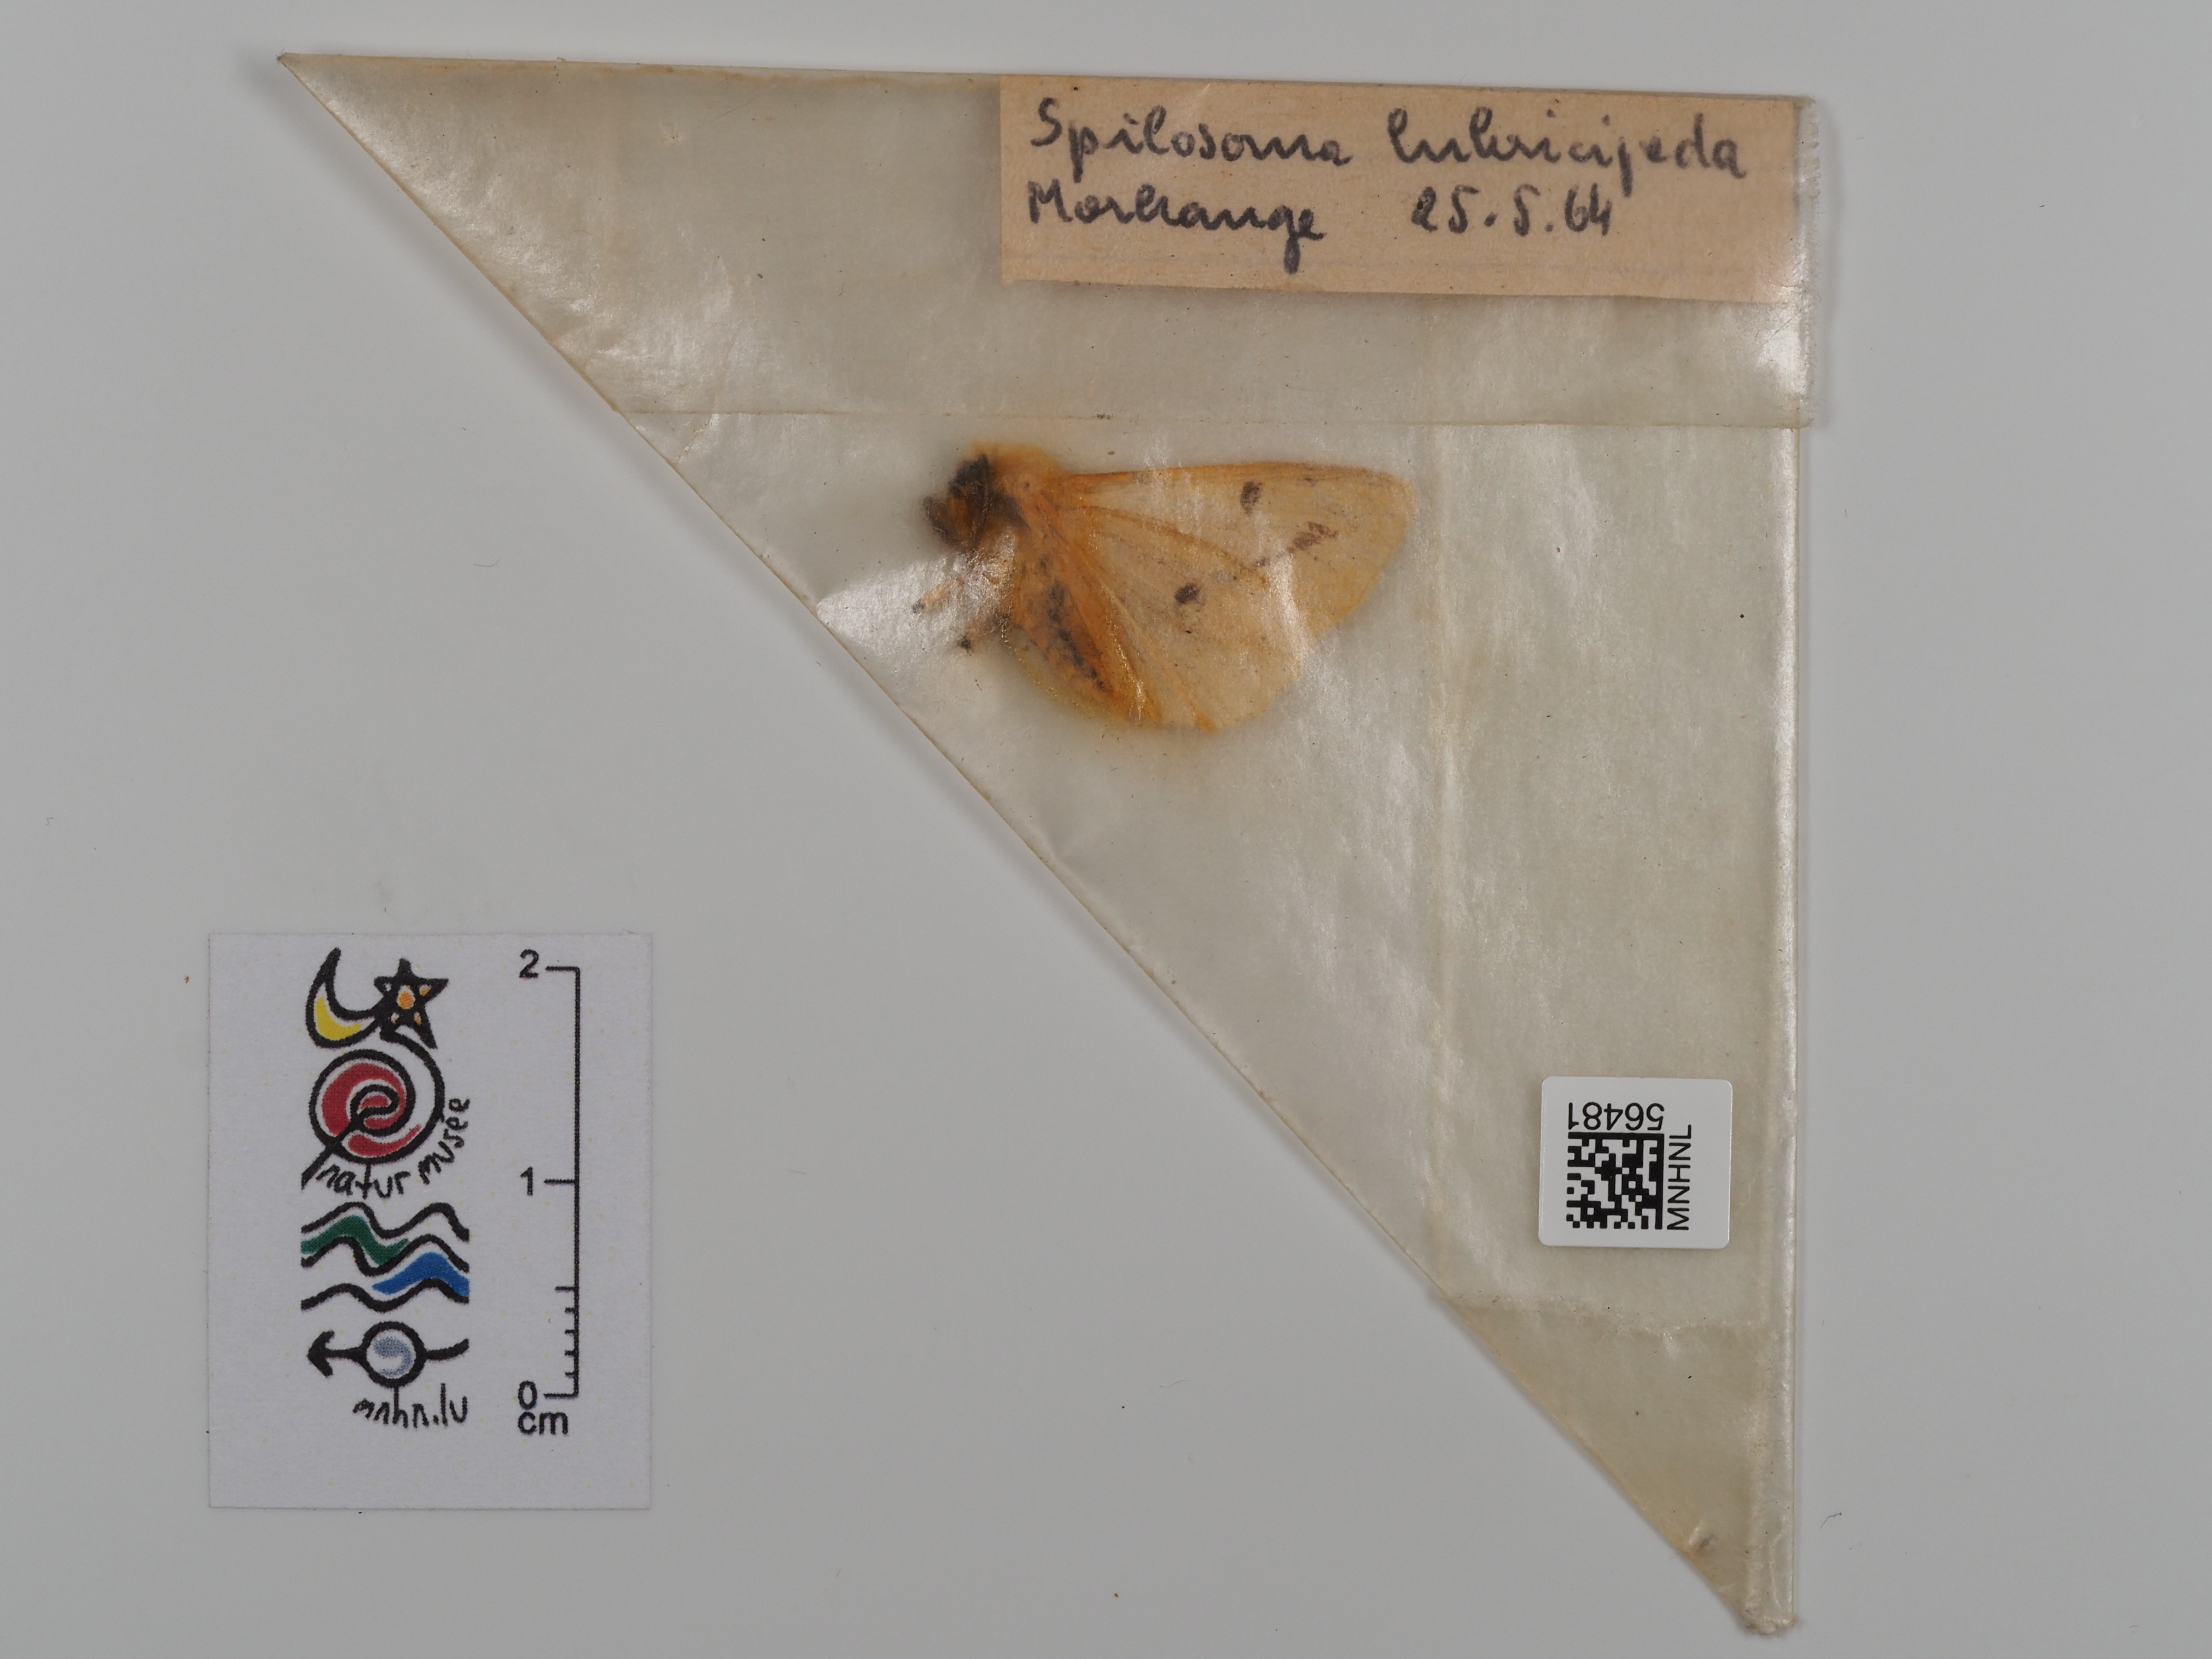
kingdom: Animalia
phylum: Arthropoda
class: Insecta
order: Lepidoptera
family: Erebidae
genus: Spilosoma
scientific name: Spilosoma lubricipeda
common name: White ermine
